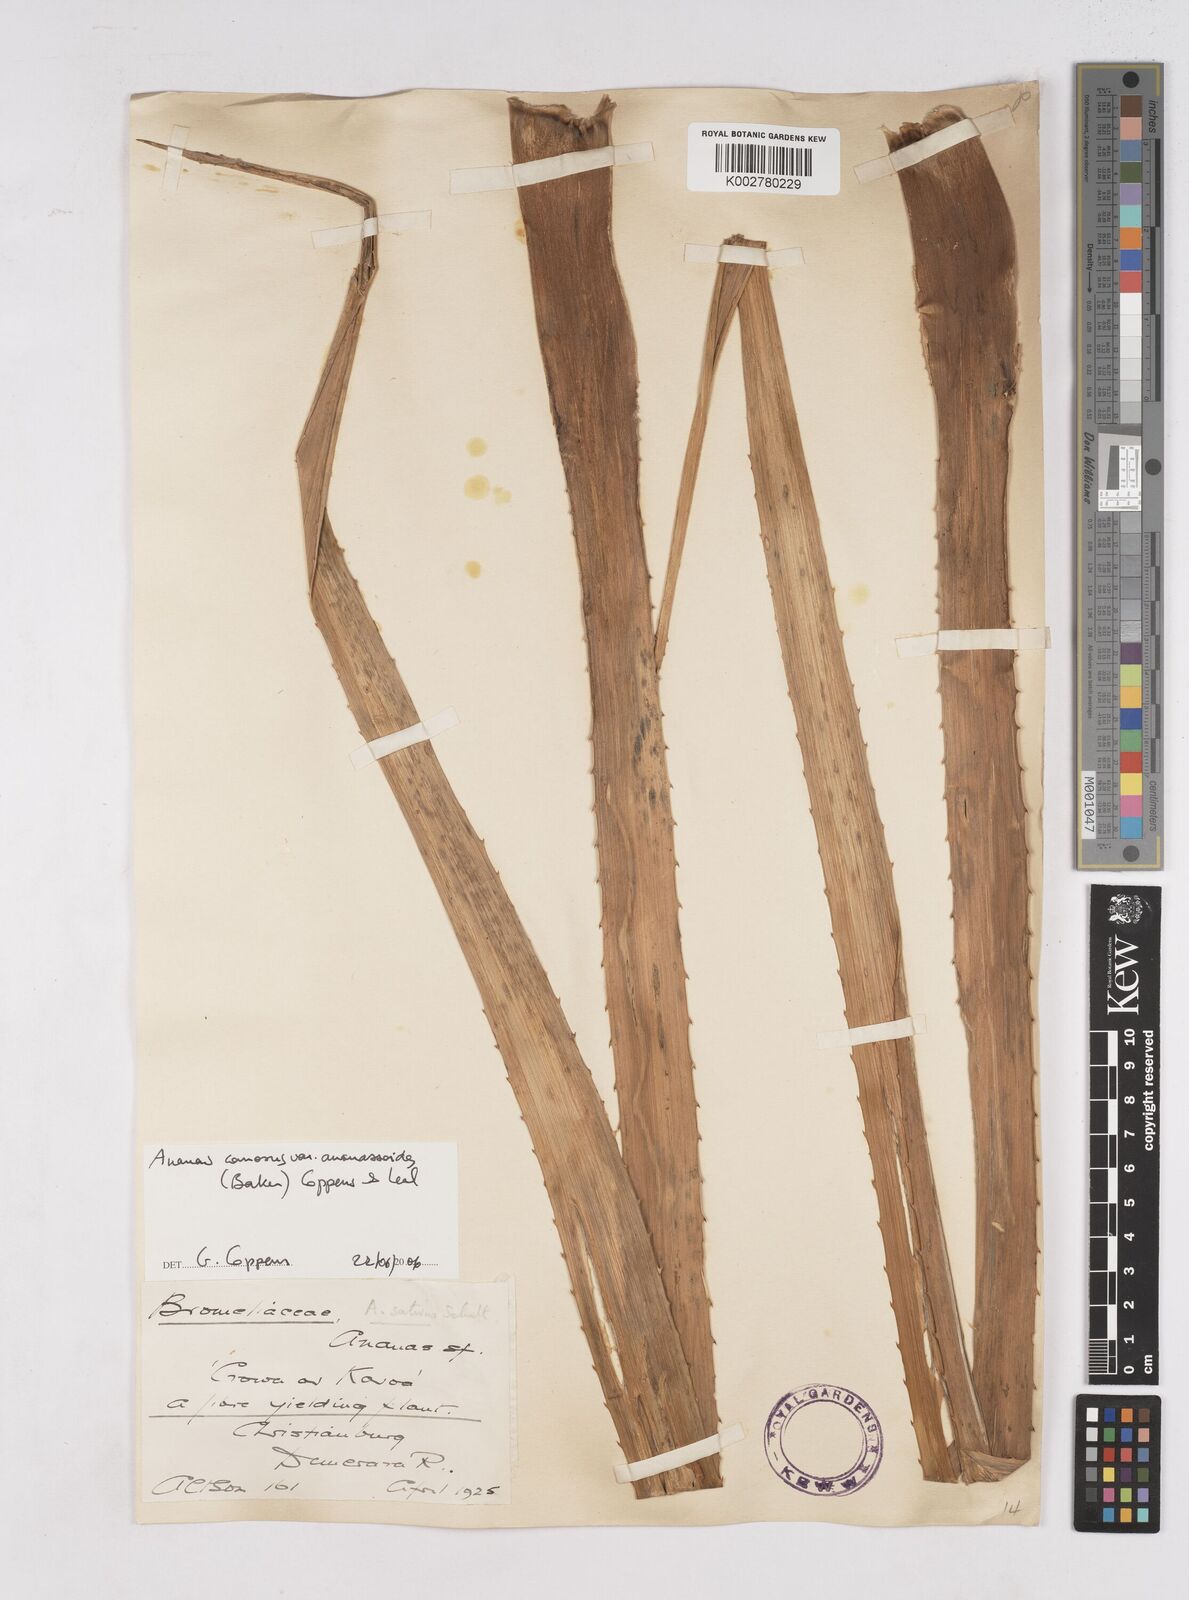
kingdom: Plantae
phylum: Tracheophyta
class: Liliopsida
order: Poales
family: Bromeliaceae
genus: Ananas
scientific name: Ananas comosus
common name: Pineapple
